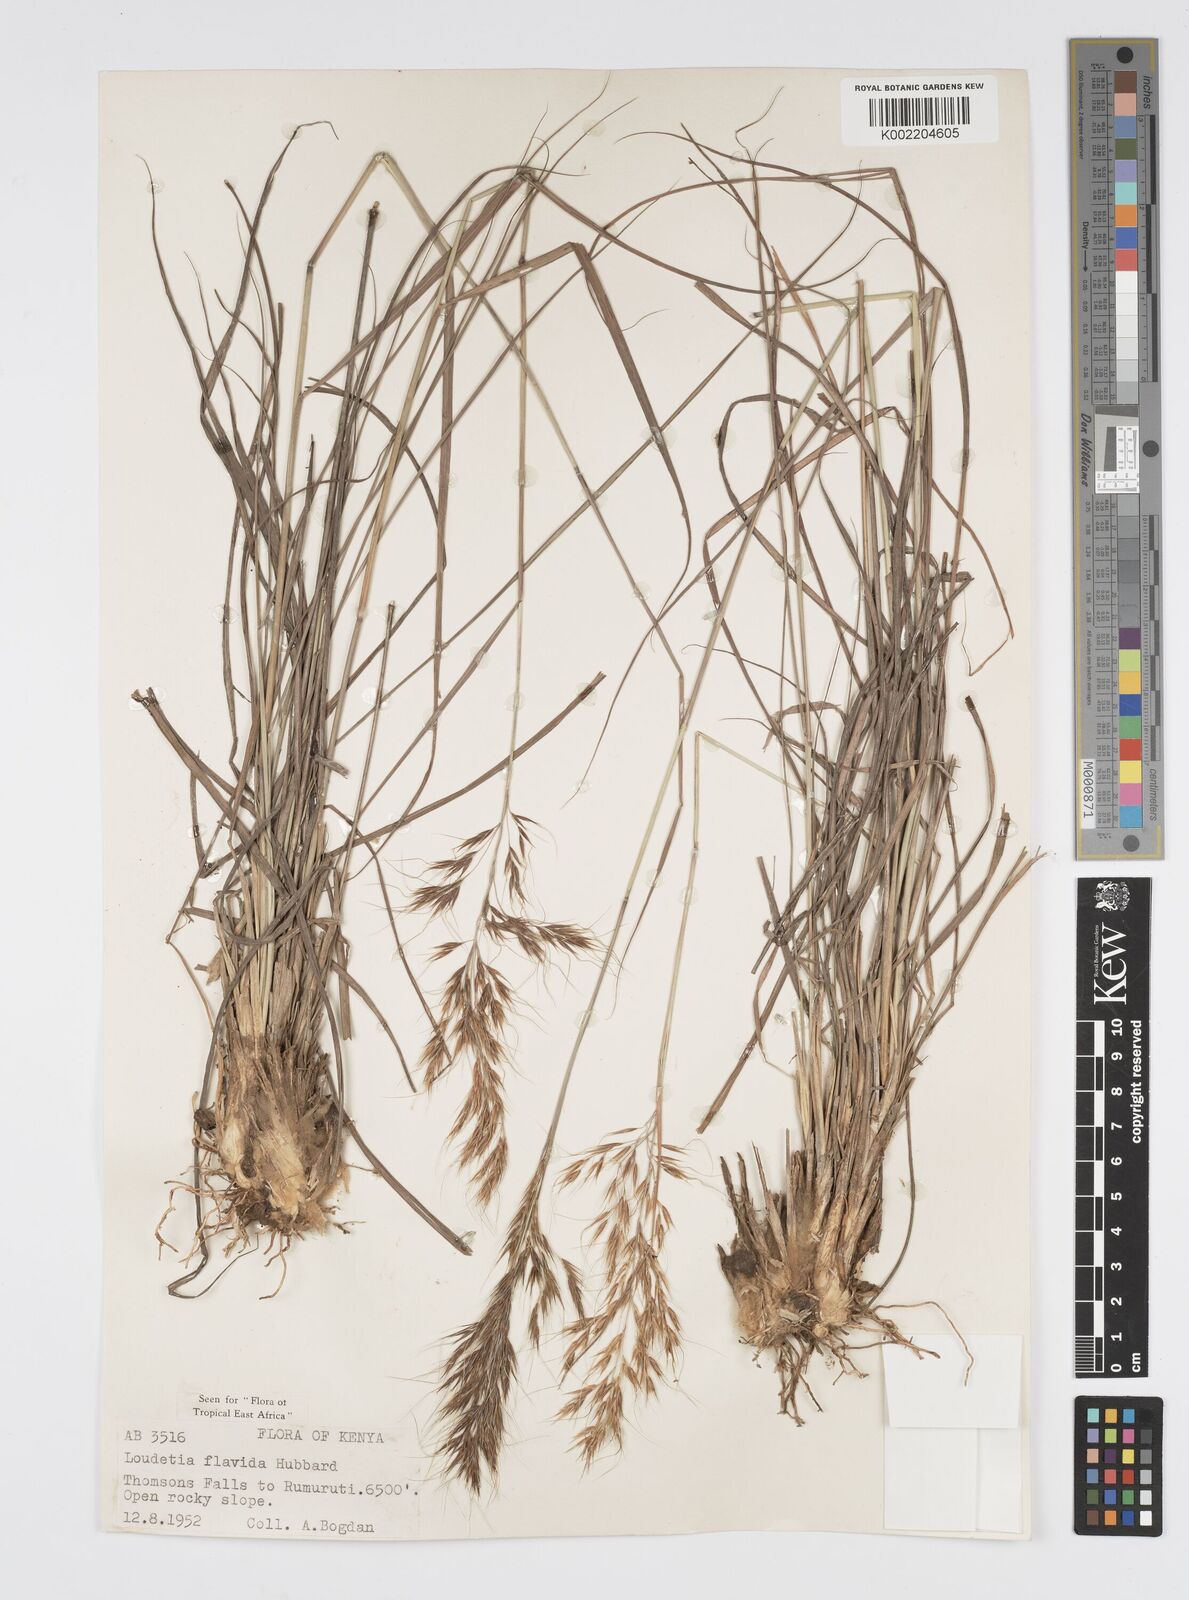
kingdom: Plantae
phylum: Tracheophyta
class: Liliopsida
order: Poales
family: Poaceae
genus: Loudetia
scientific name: Loudetia flavida
